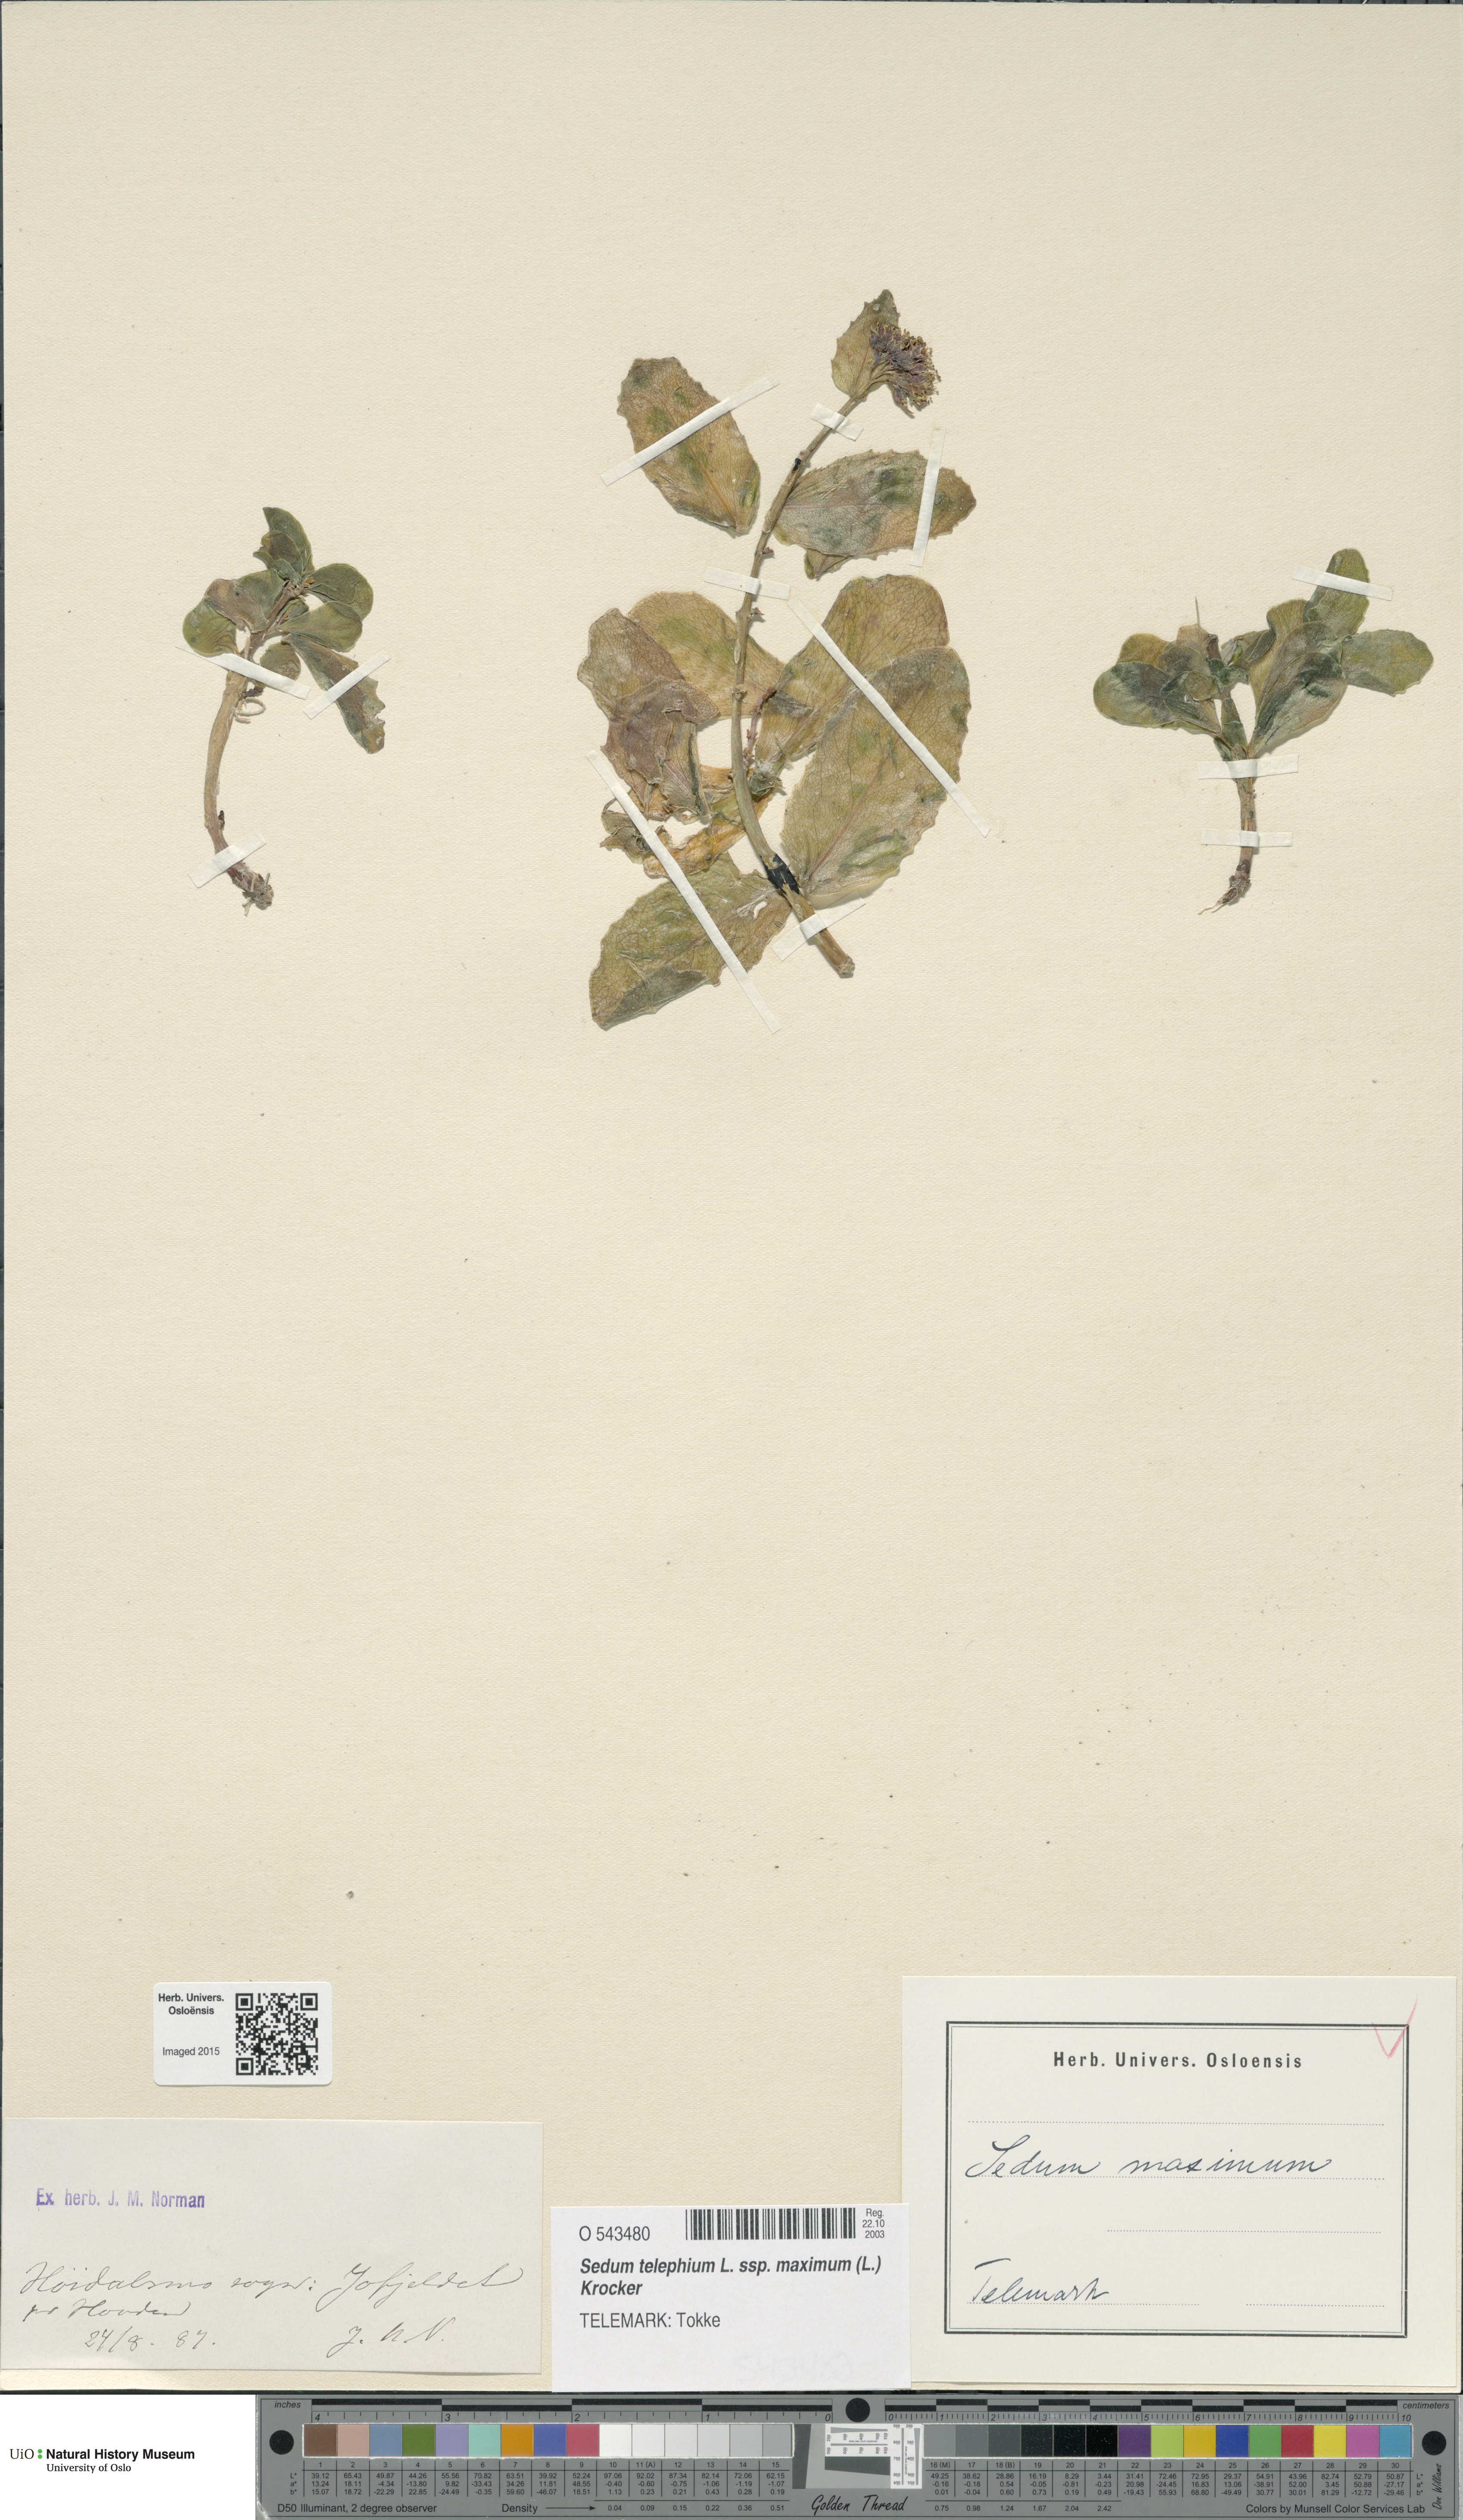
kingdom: Plantae
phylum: Tracheophyta
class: Magnoliopsida
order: Saxifragales
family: Crassulaceae
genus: Hylotelephium
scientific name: Hylotelephium maximum
